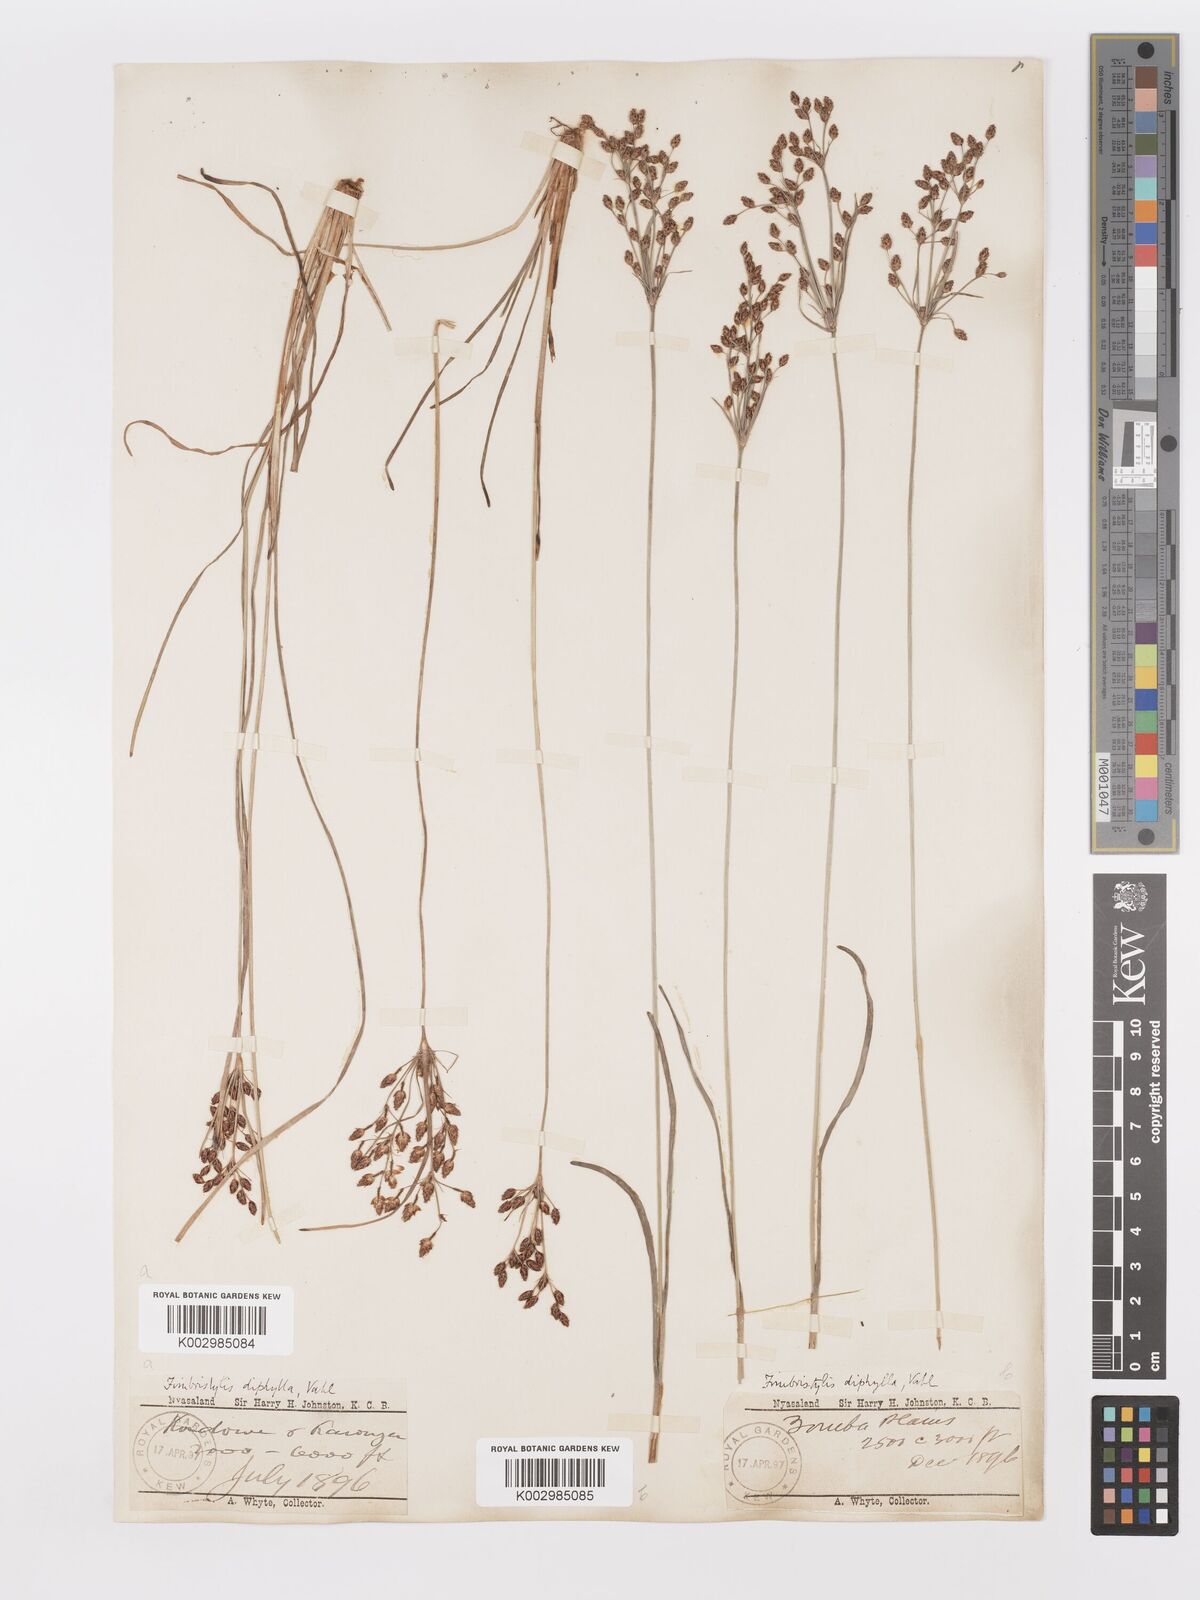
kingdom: Plantae
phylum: Tracheophyta
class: Liliopsida
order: Poales
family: Cyperaceae
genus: Fimbristylis
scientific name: Fimbristylis dichotoma
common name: Forked fimbry
